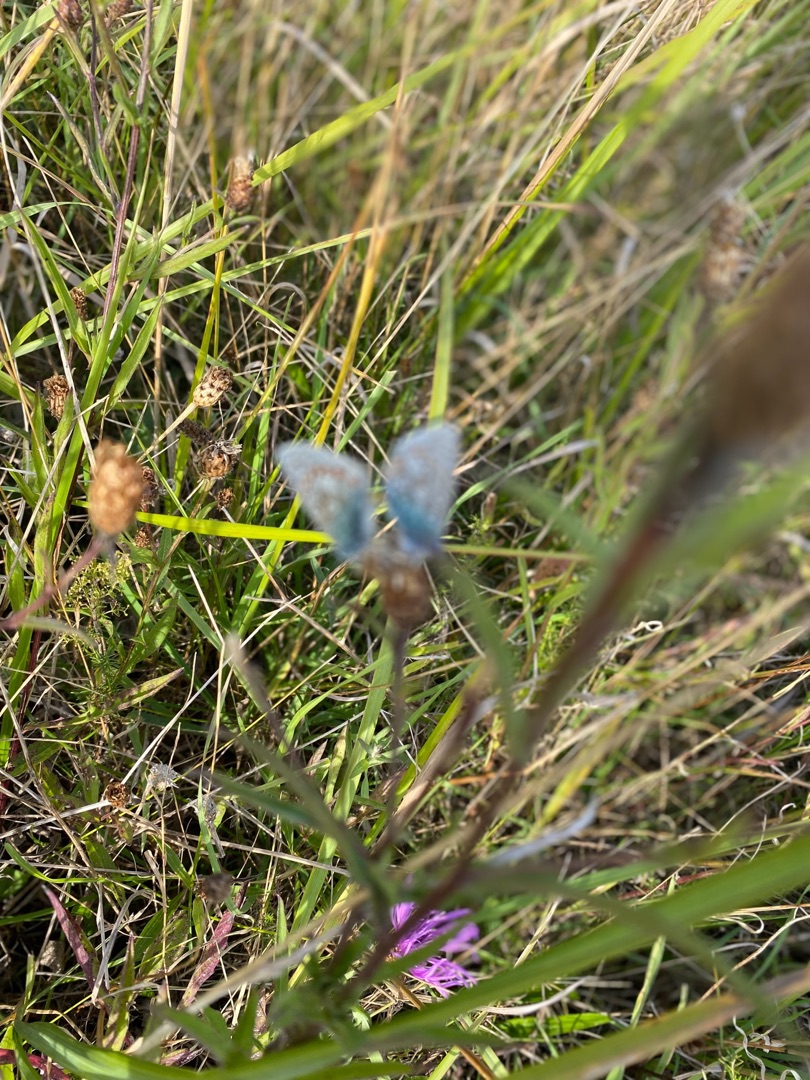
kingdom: Animalia
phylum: Arthropoda
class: Insecta
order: Lepidoptera
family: Lycaenidae
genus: Polyommatus
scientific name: Polyommatus icarus
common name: Almindelig blåfugl
